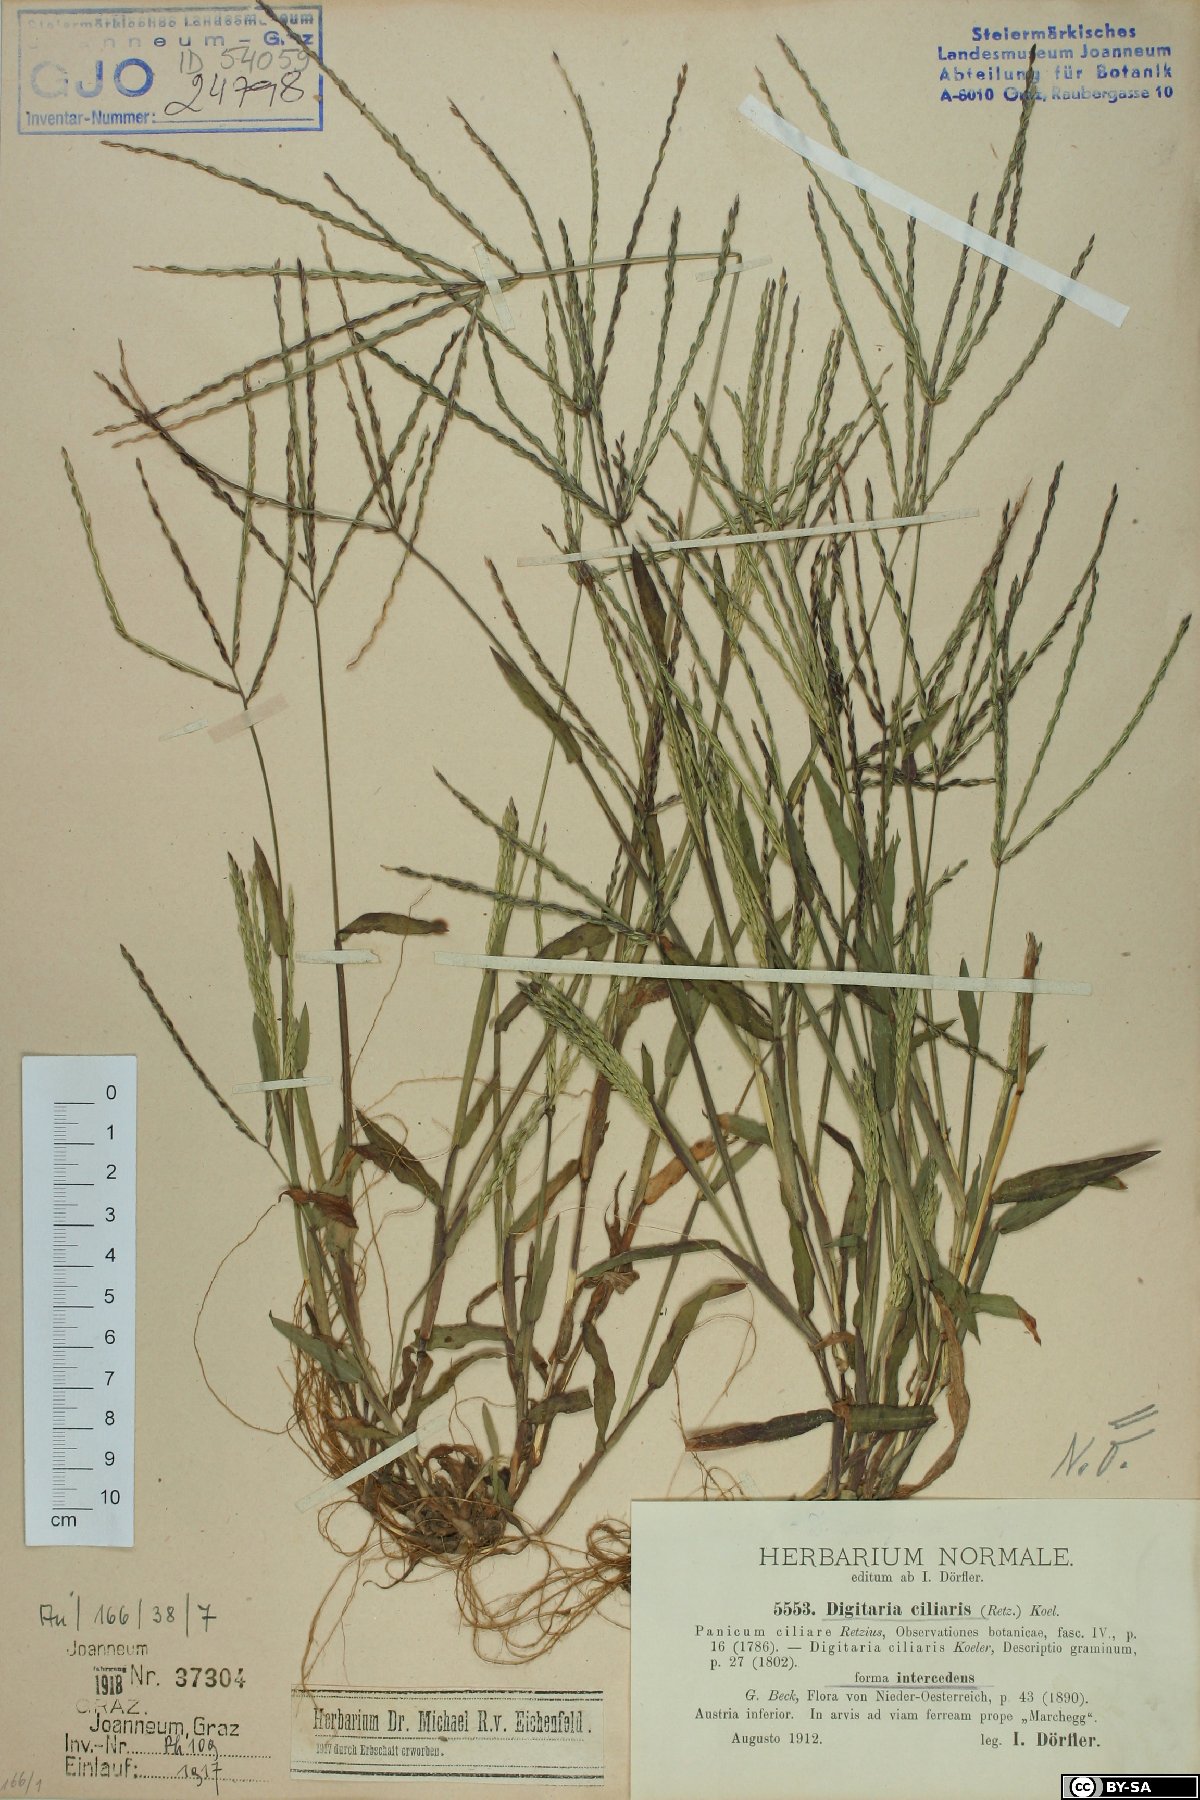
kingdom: Plantae
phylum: Tracheophyta
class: Liliopsida
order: Poales
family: Poaceae
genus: Digitaria
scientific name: Digitaria sanguinalis
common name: Hairy crabgrass
